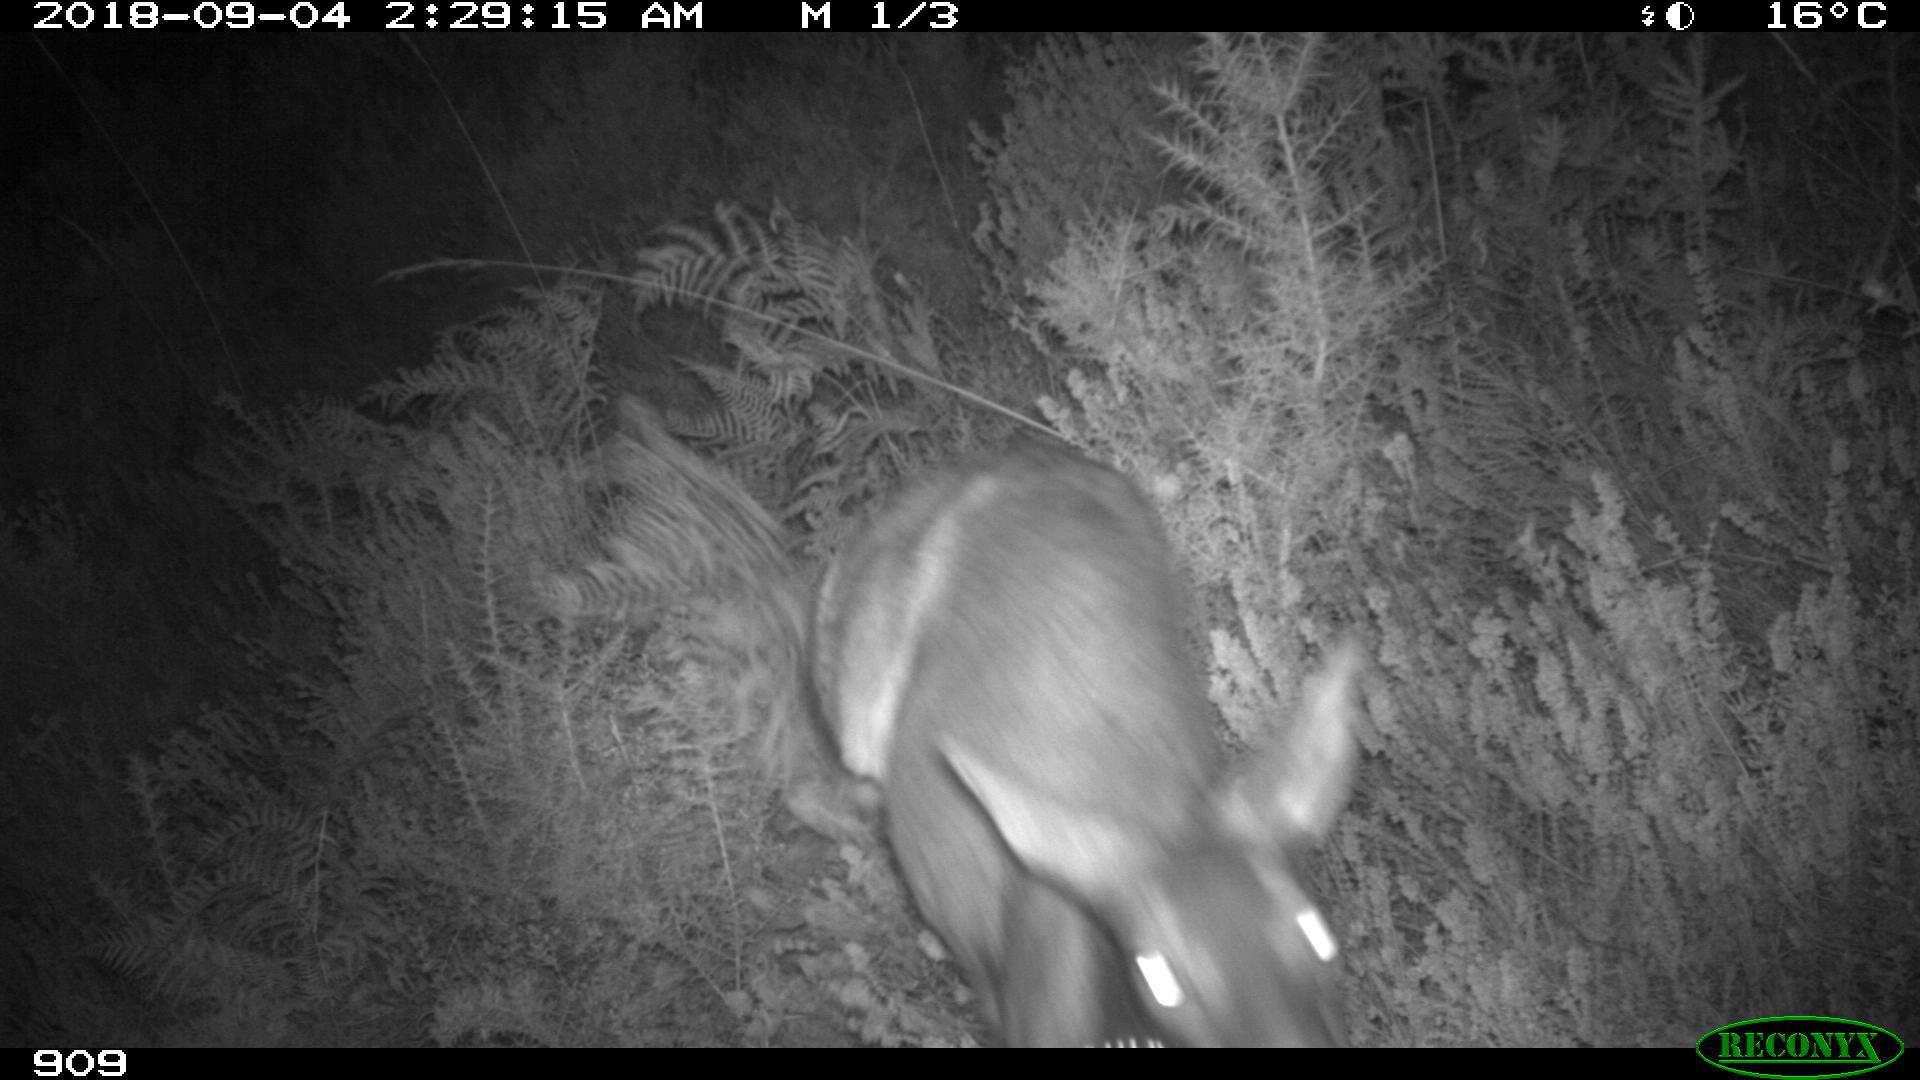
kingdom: Animalia
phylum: Chordata
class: Mammalia
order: Artiodactyla
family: Cervidae
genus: Capreolus
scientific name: Capreolus capreolus
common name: Western roe deer
